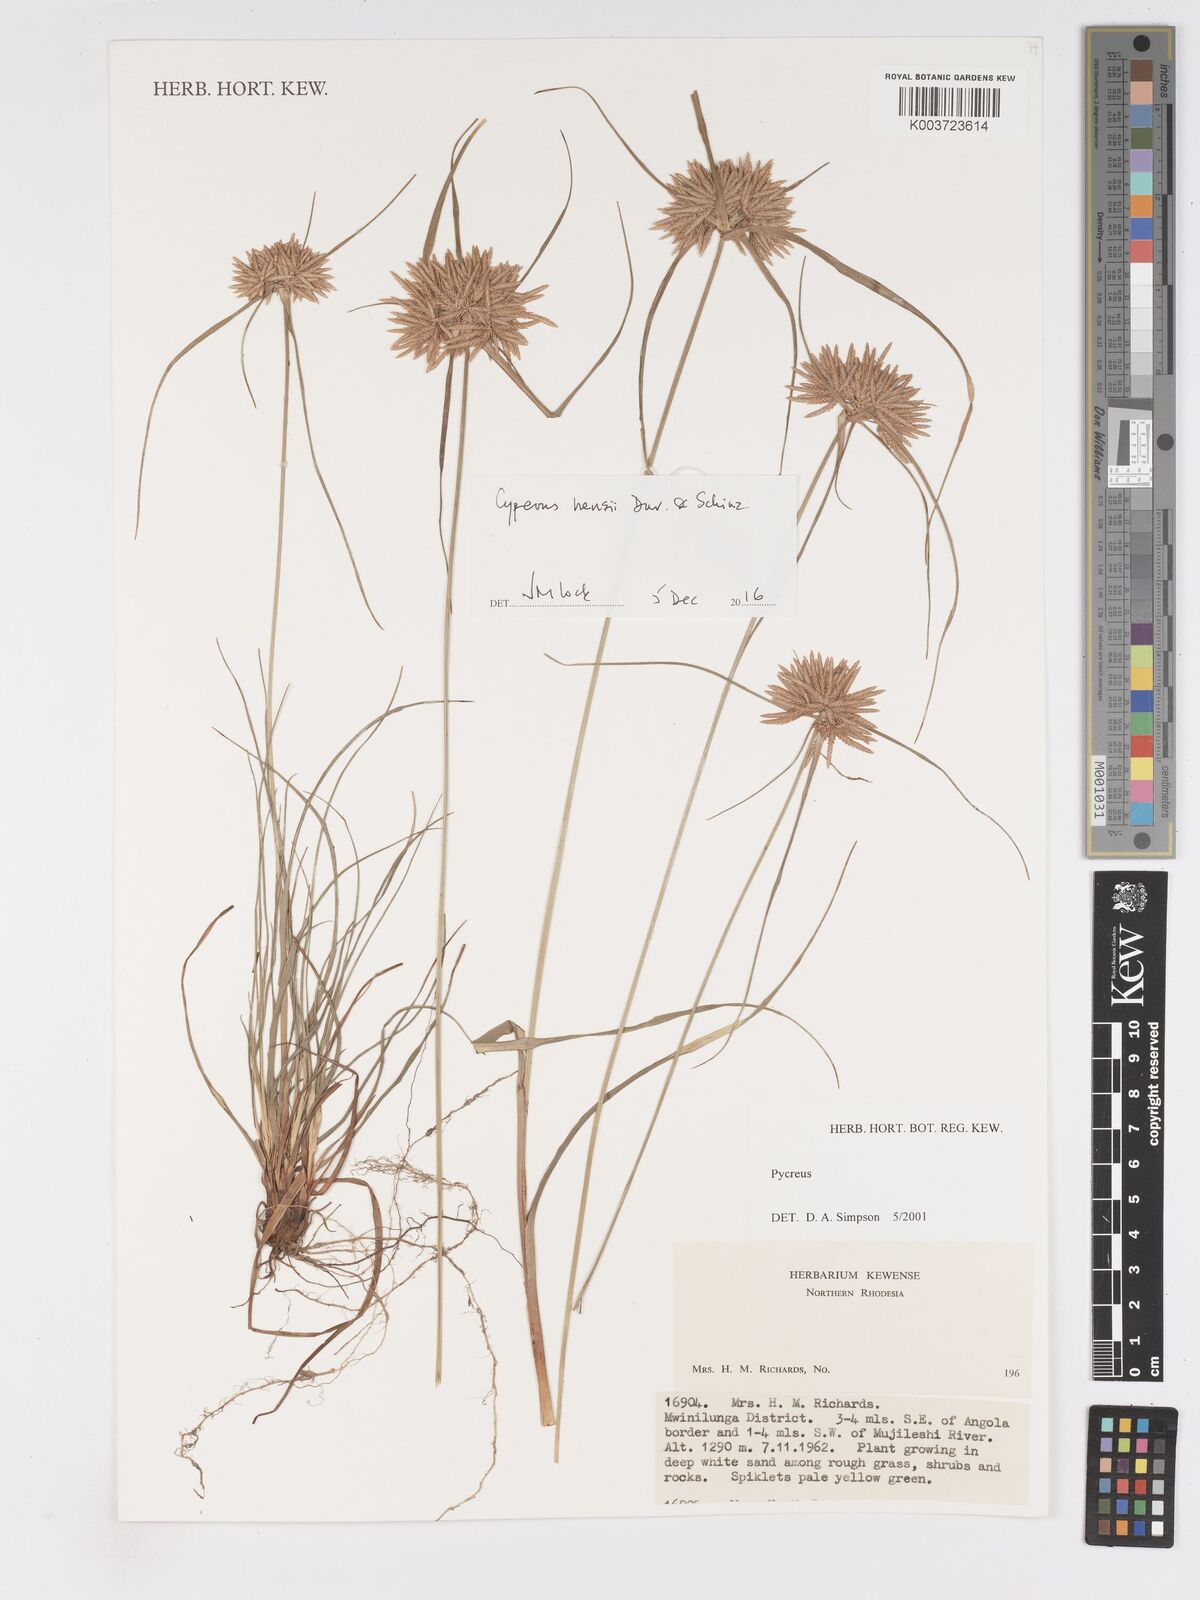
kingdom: Plantae
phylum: Tracheophyta
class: Liliopsida
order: Poales
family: Cyperaceae
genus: Cyperus
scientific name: Cyperus hensii
